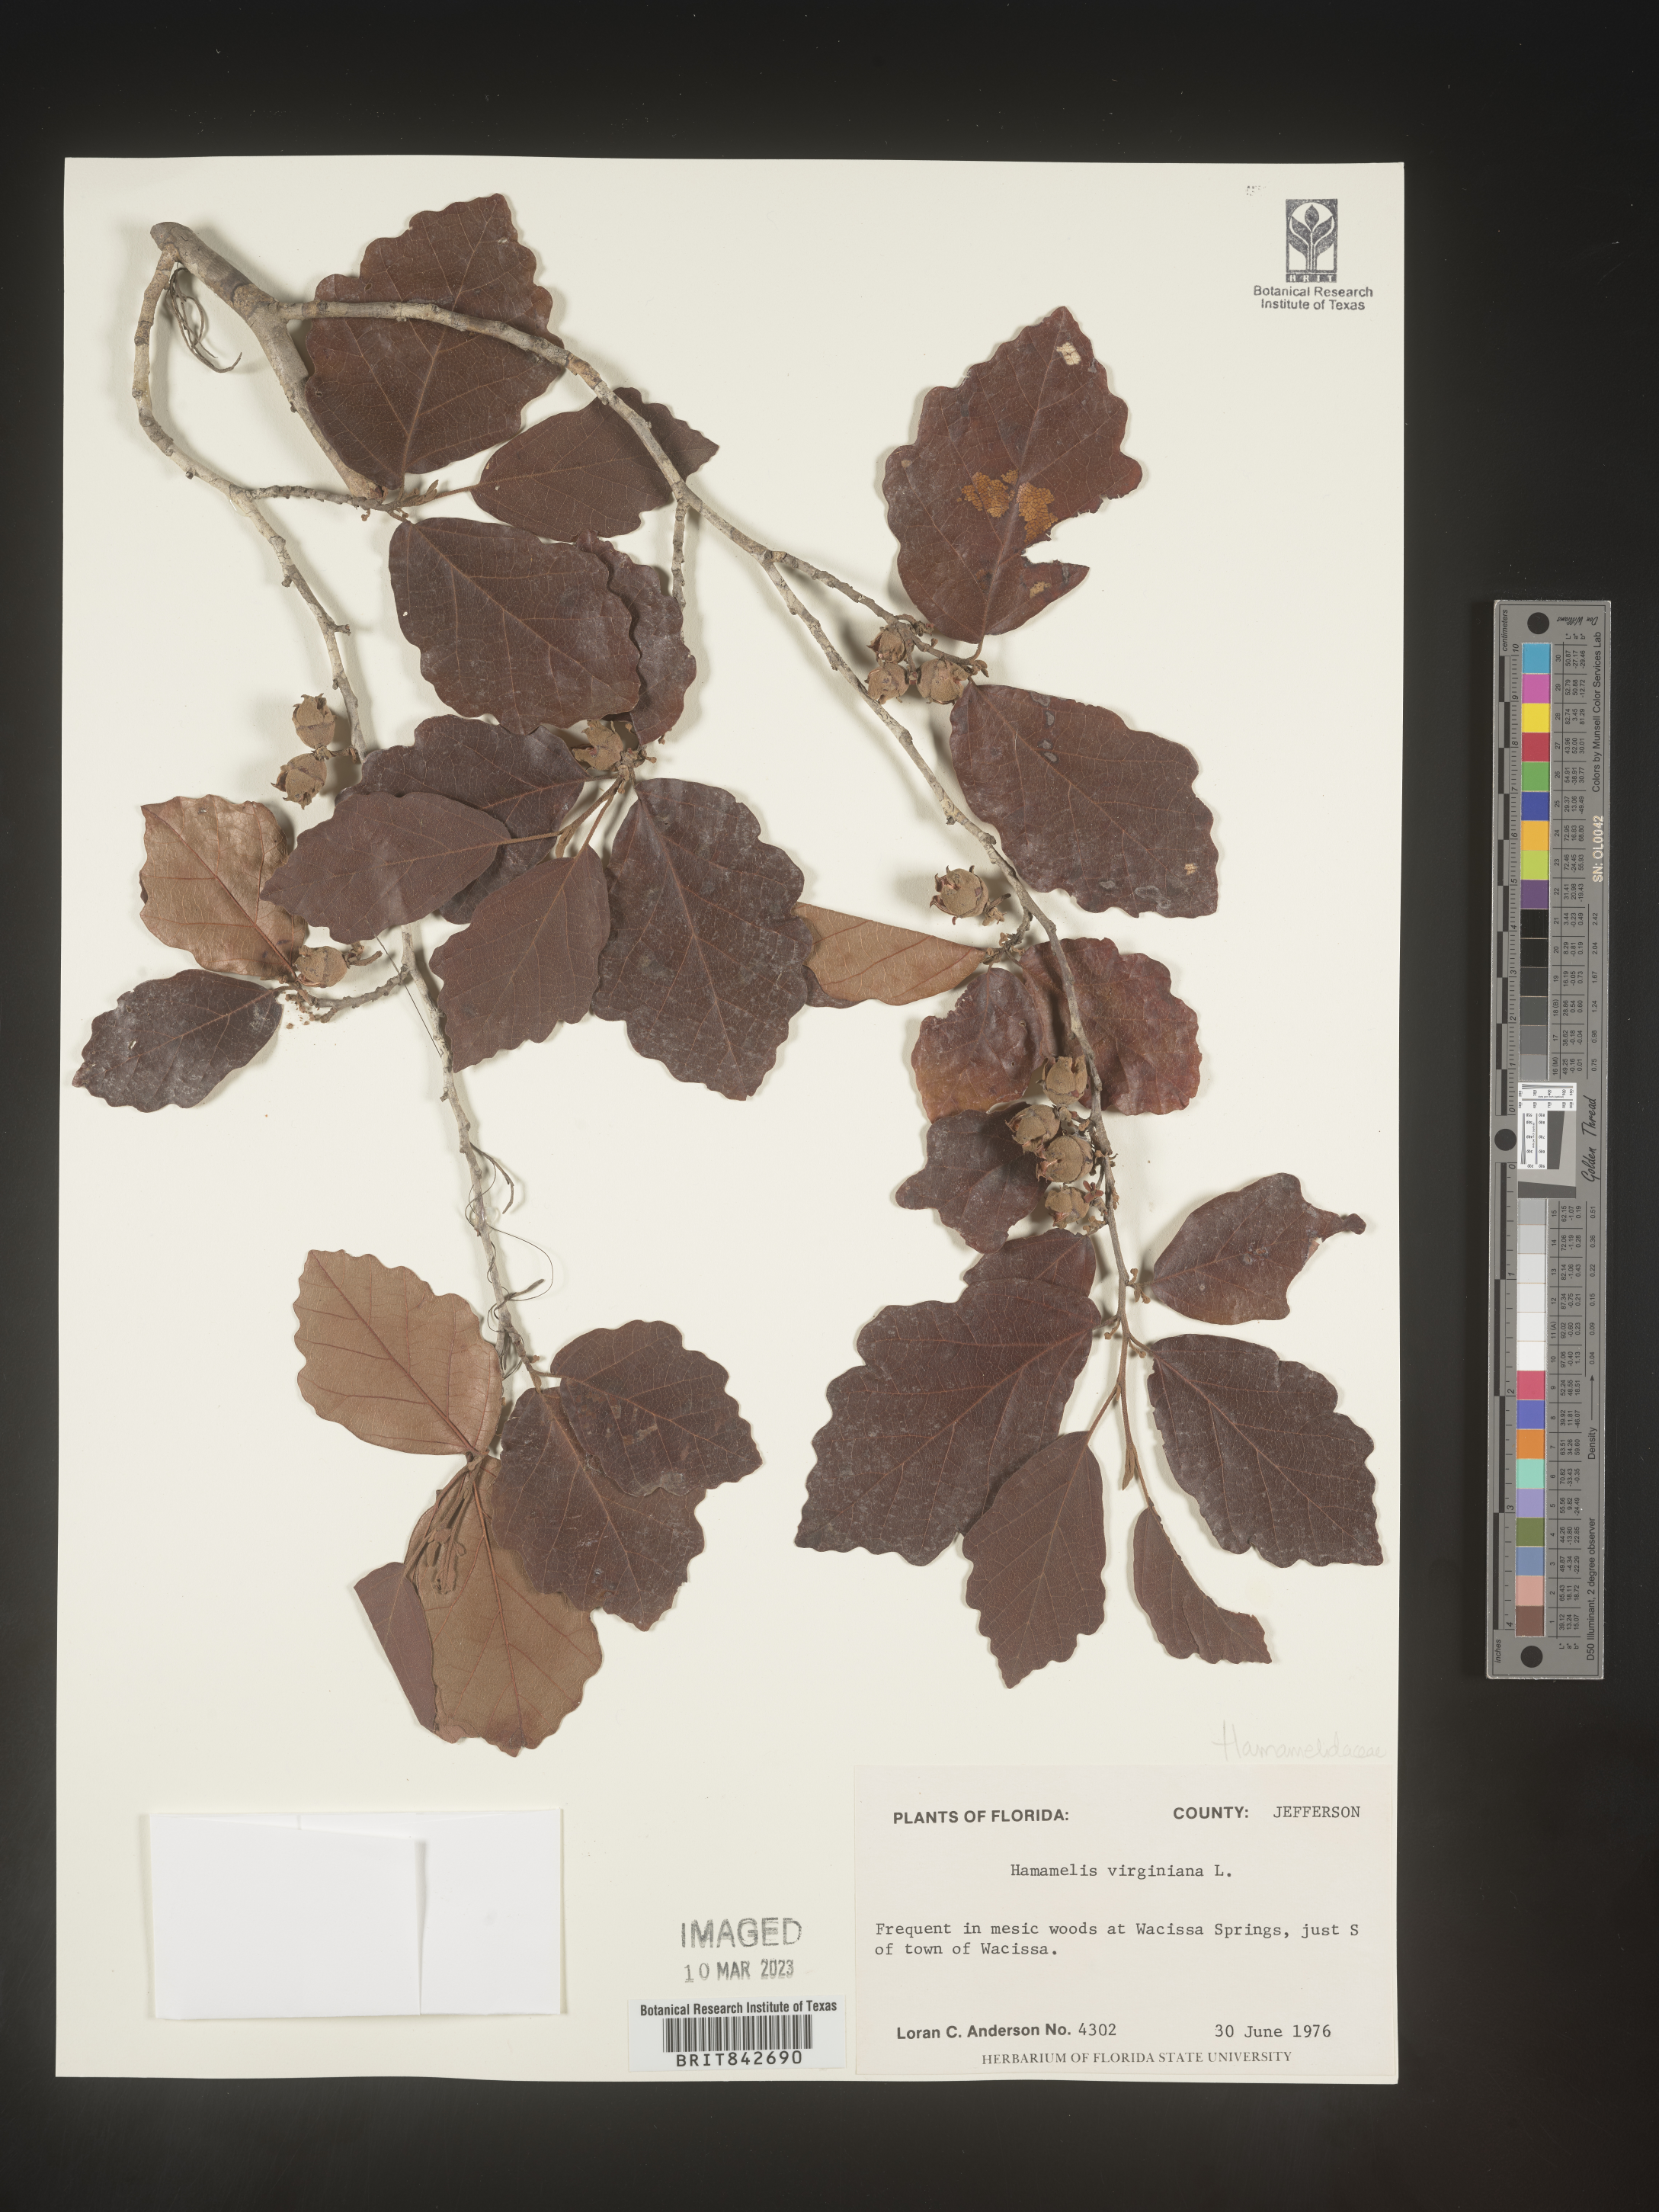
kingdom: Plantae
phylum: Tracheophyta
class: Magnoliopsida
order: Saxifragales
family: Hamamelidaceae
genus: Hamamelis
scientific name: Hamamelis virginiana
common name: Witch-hazel
